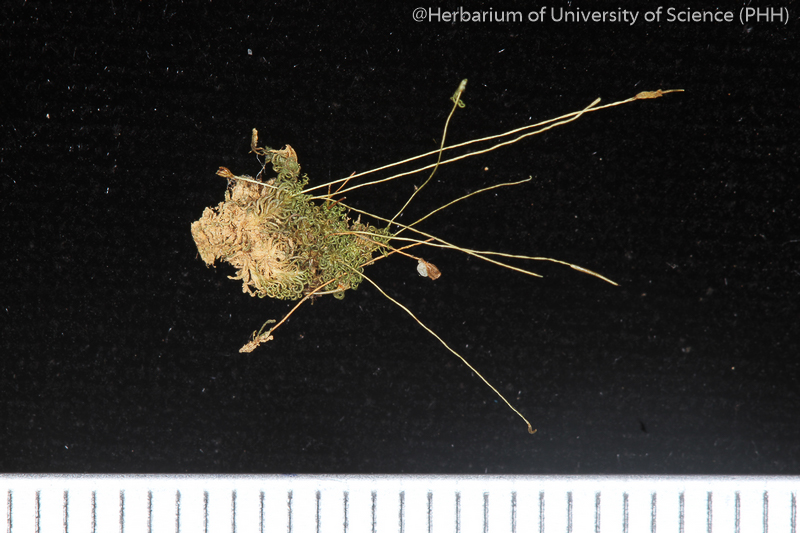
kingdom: Plantae
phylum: Bryophyta
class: Bryopsida
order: Pottiales
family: Pottiaceae
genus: Weissia
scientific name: Weissia longidens
